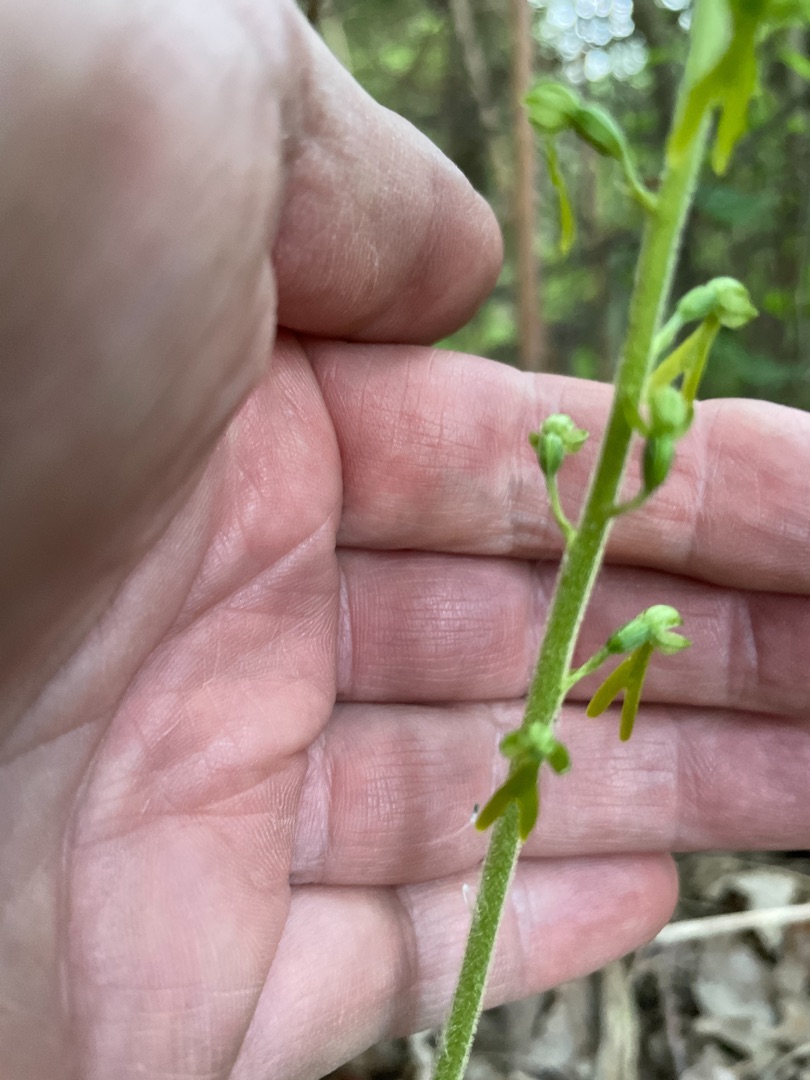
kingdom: Plantae
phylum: Tracheophyta
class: Liliopsida
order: Asparagales
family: Orchidaceae
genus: Neottia
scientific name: Neottia ovata
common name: Ægbladet fliglæbe
